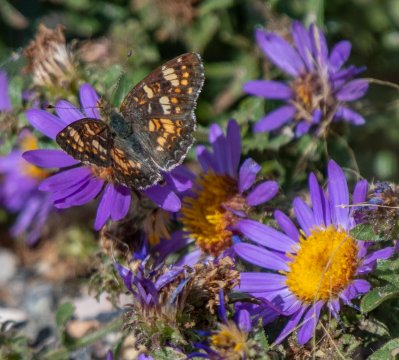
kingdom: Animalia
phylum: Arthropoda
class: Insecta
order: Lepidoptera
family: Nymphalidae
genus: Phyciodes
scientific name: Phyciodes tharos
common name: Field Crescent
